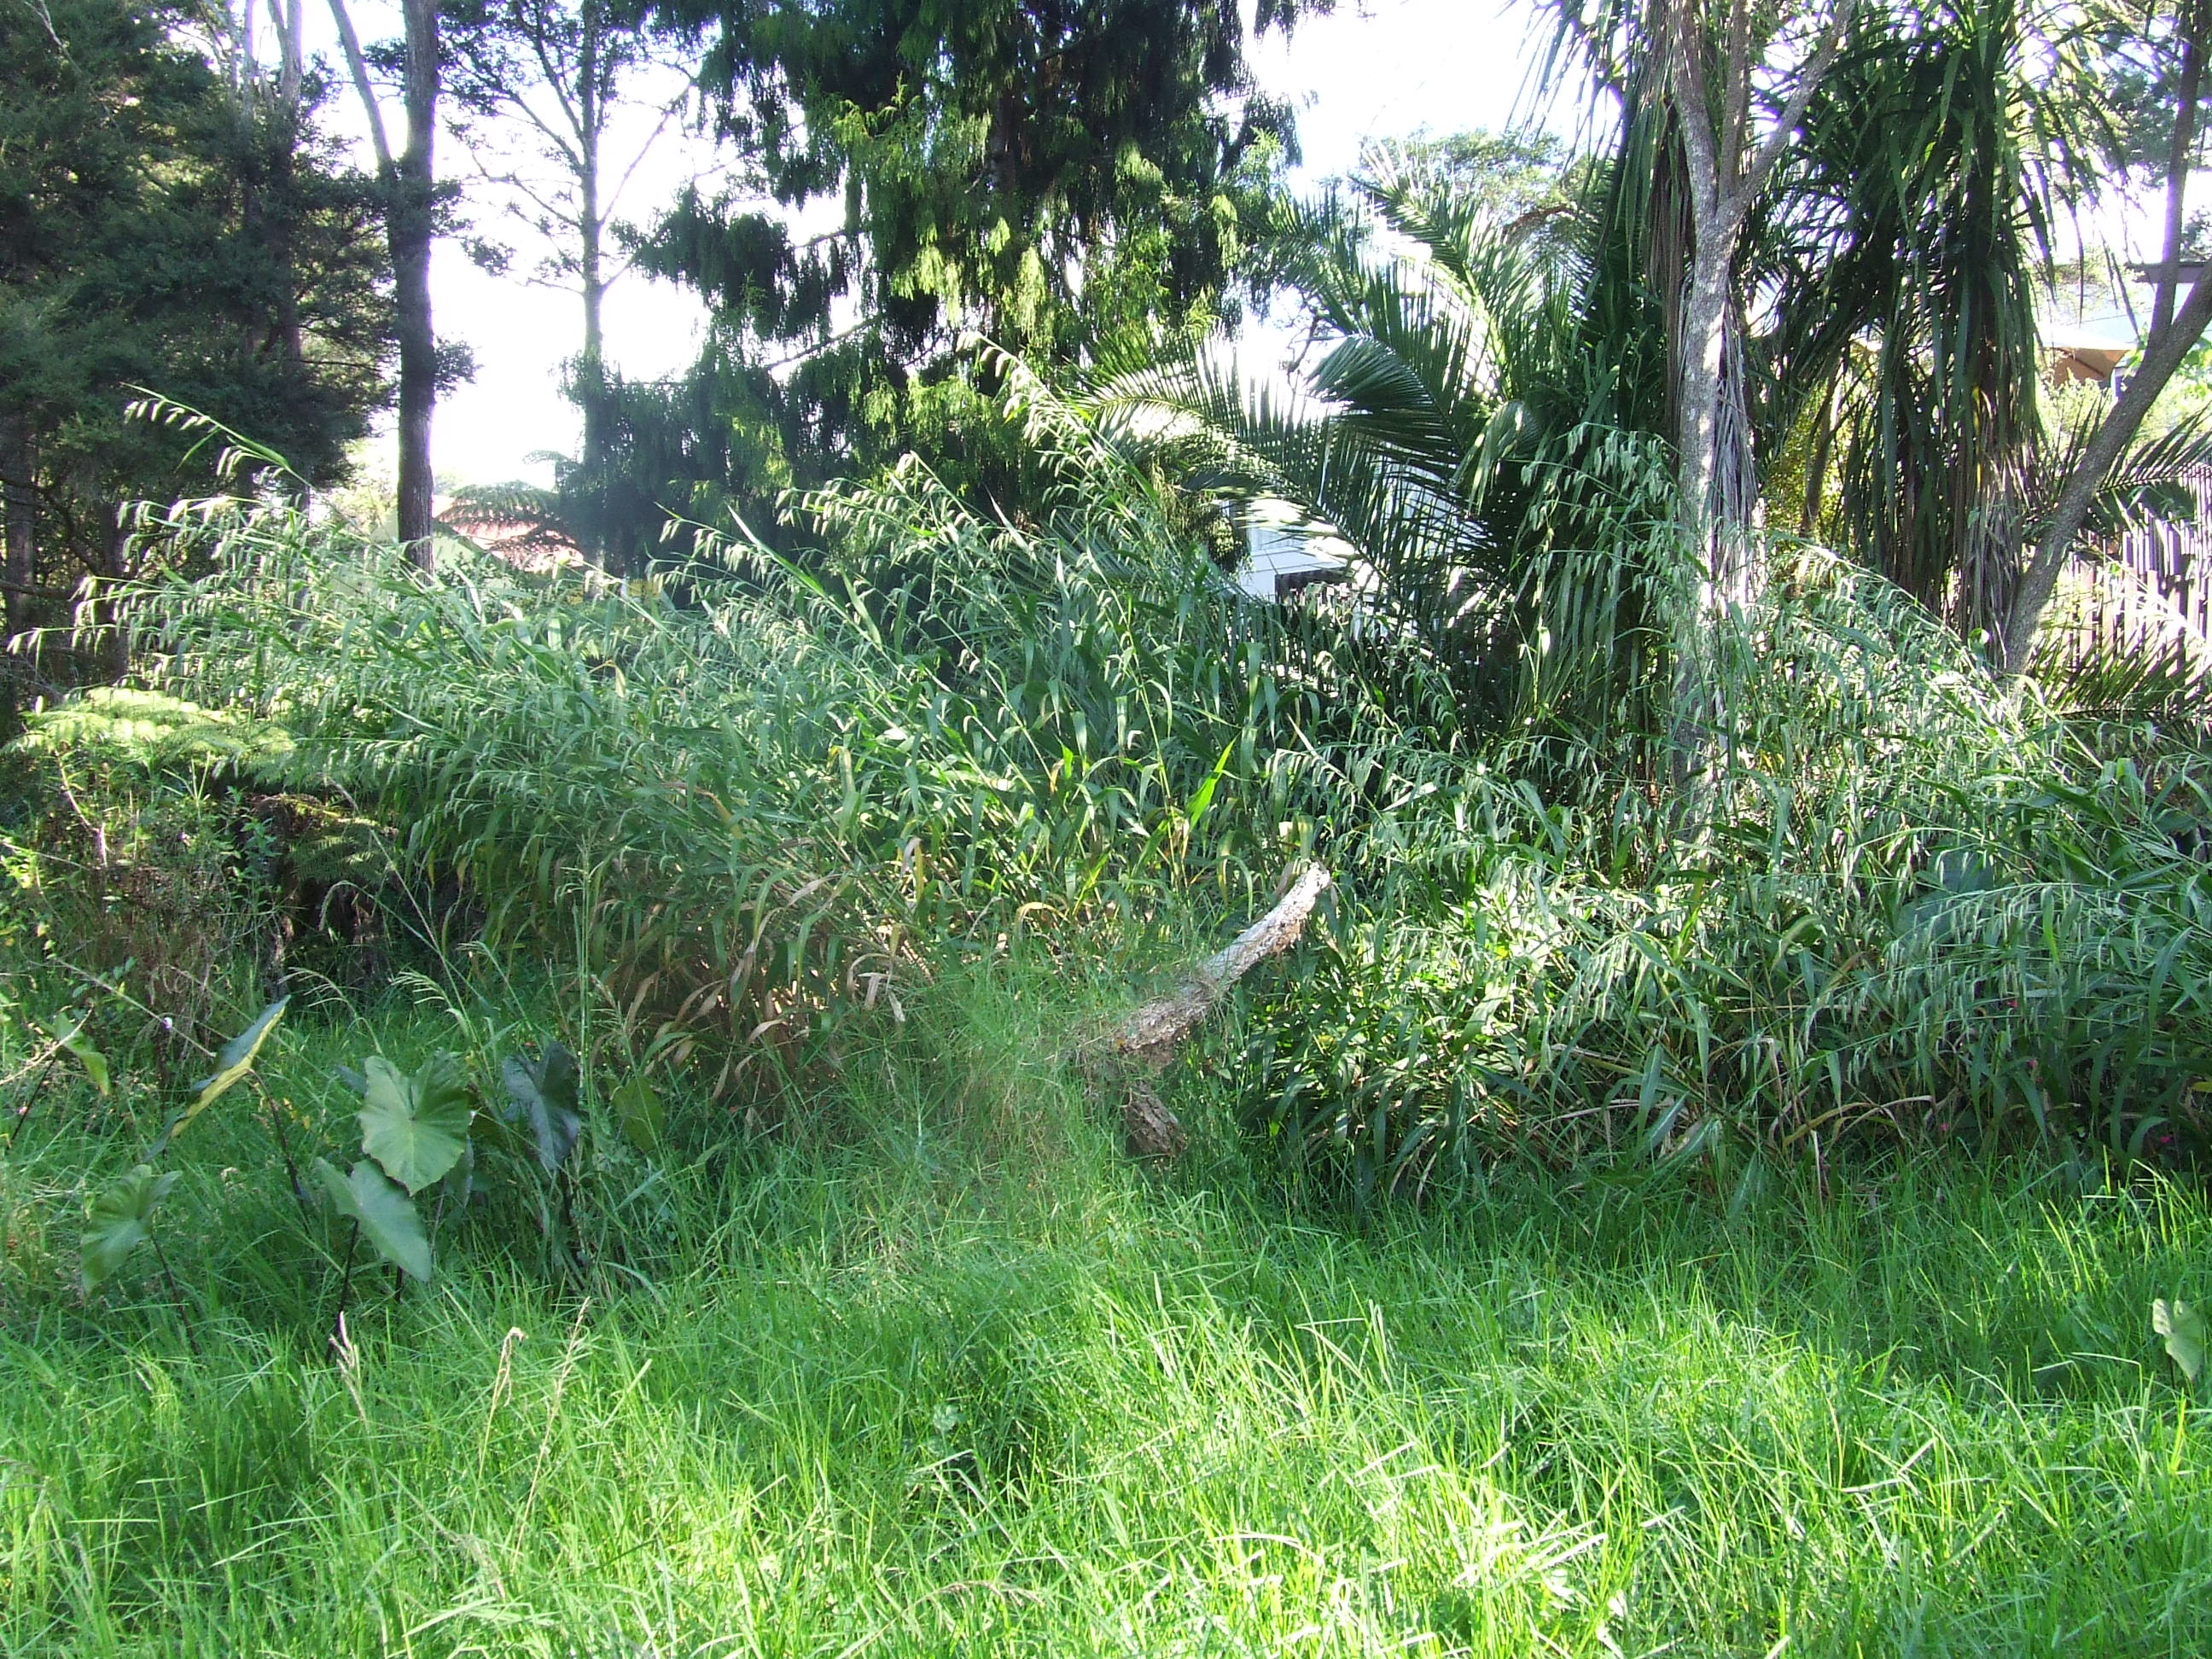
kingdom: Plantae
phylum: Tracheophyta
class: Liliopsida
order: Poales
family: Poaceae
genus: Cenchrus
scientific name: Cenchrus latifolius
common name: Sandbur
